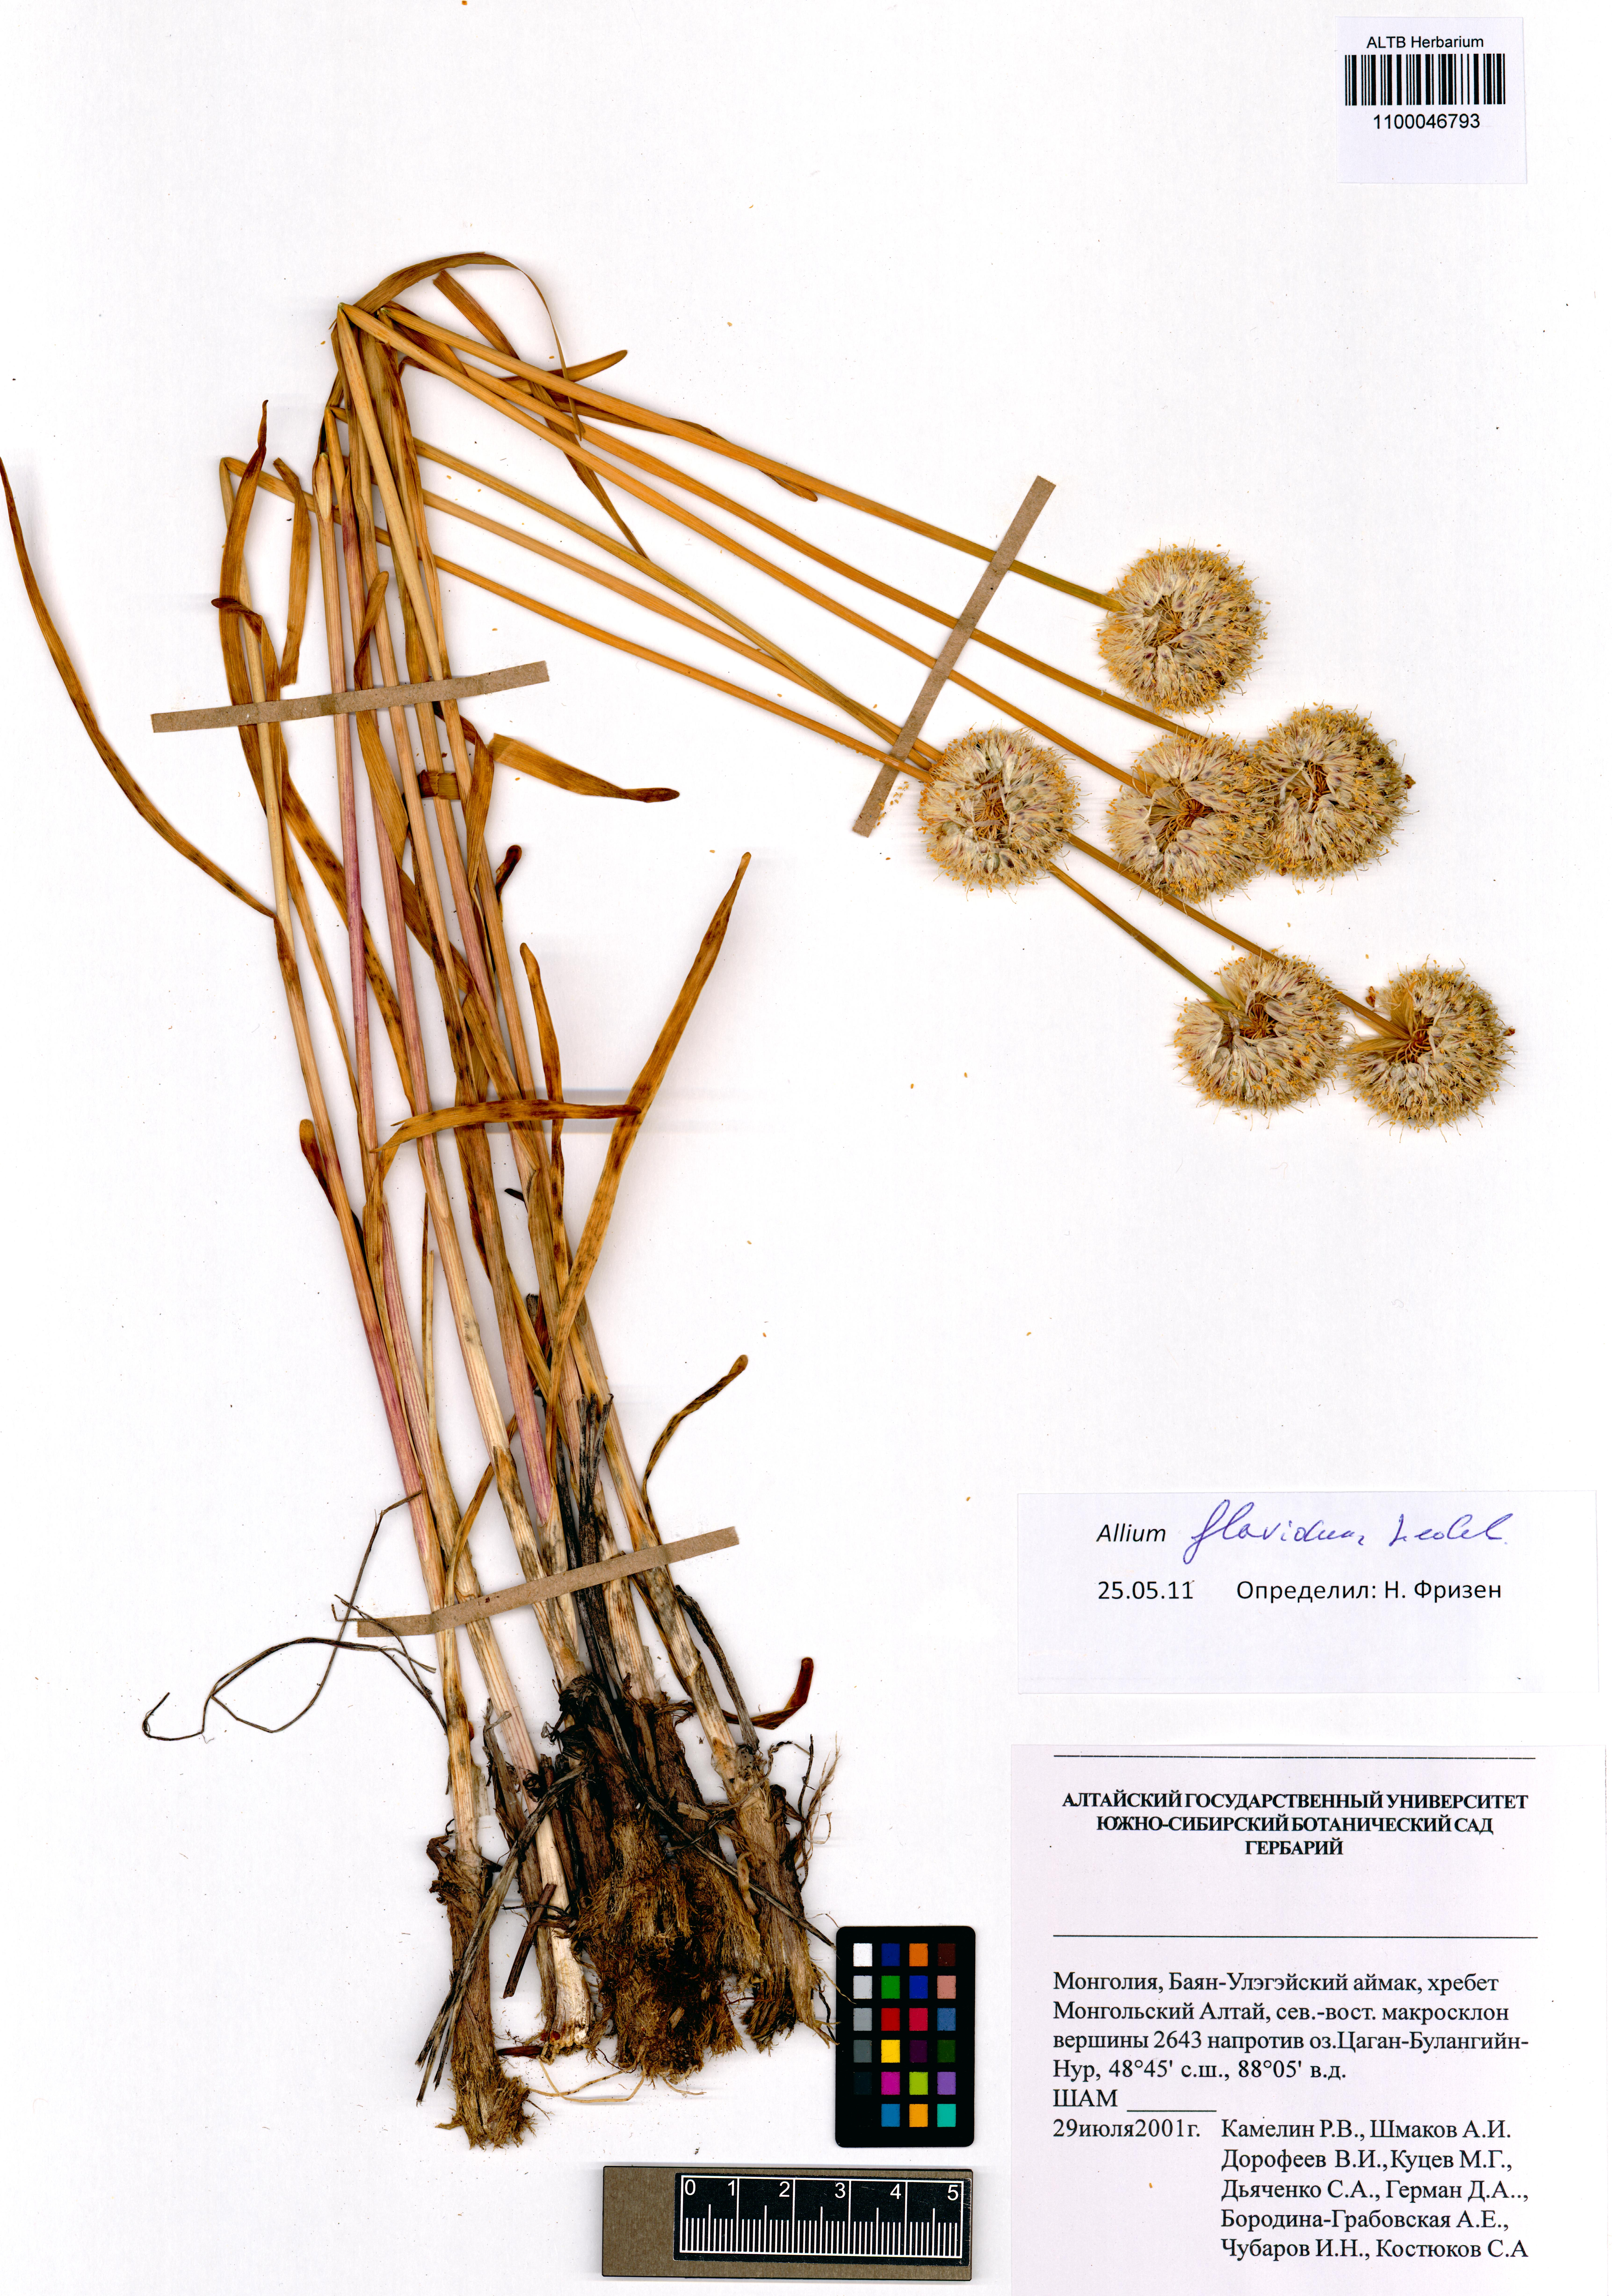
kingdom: Plantae
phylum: Tracheophyta
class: Liliopsida
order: Asparagales
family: Amaryllidaceae
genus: Allium
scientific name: Allium flavidum
